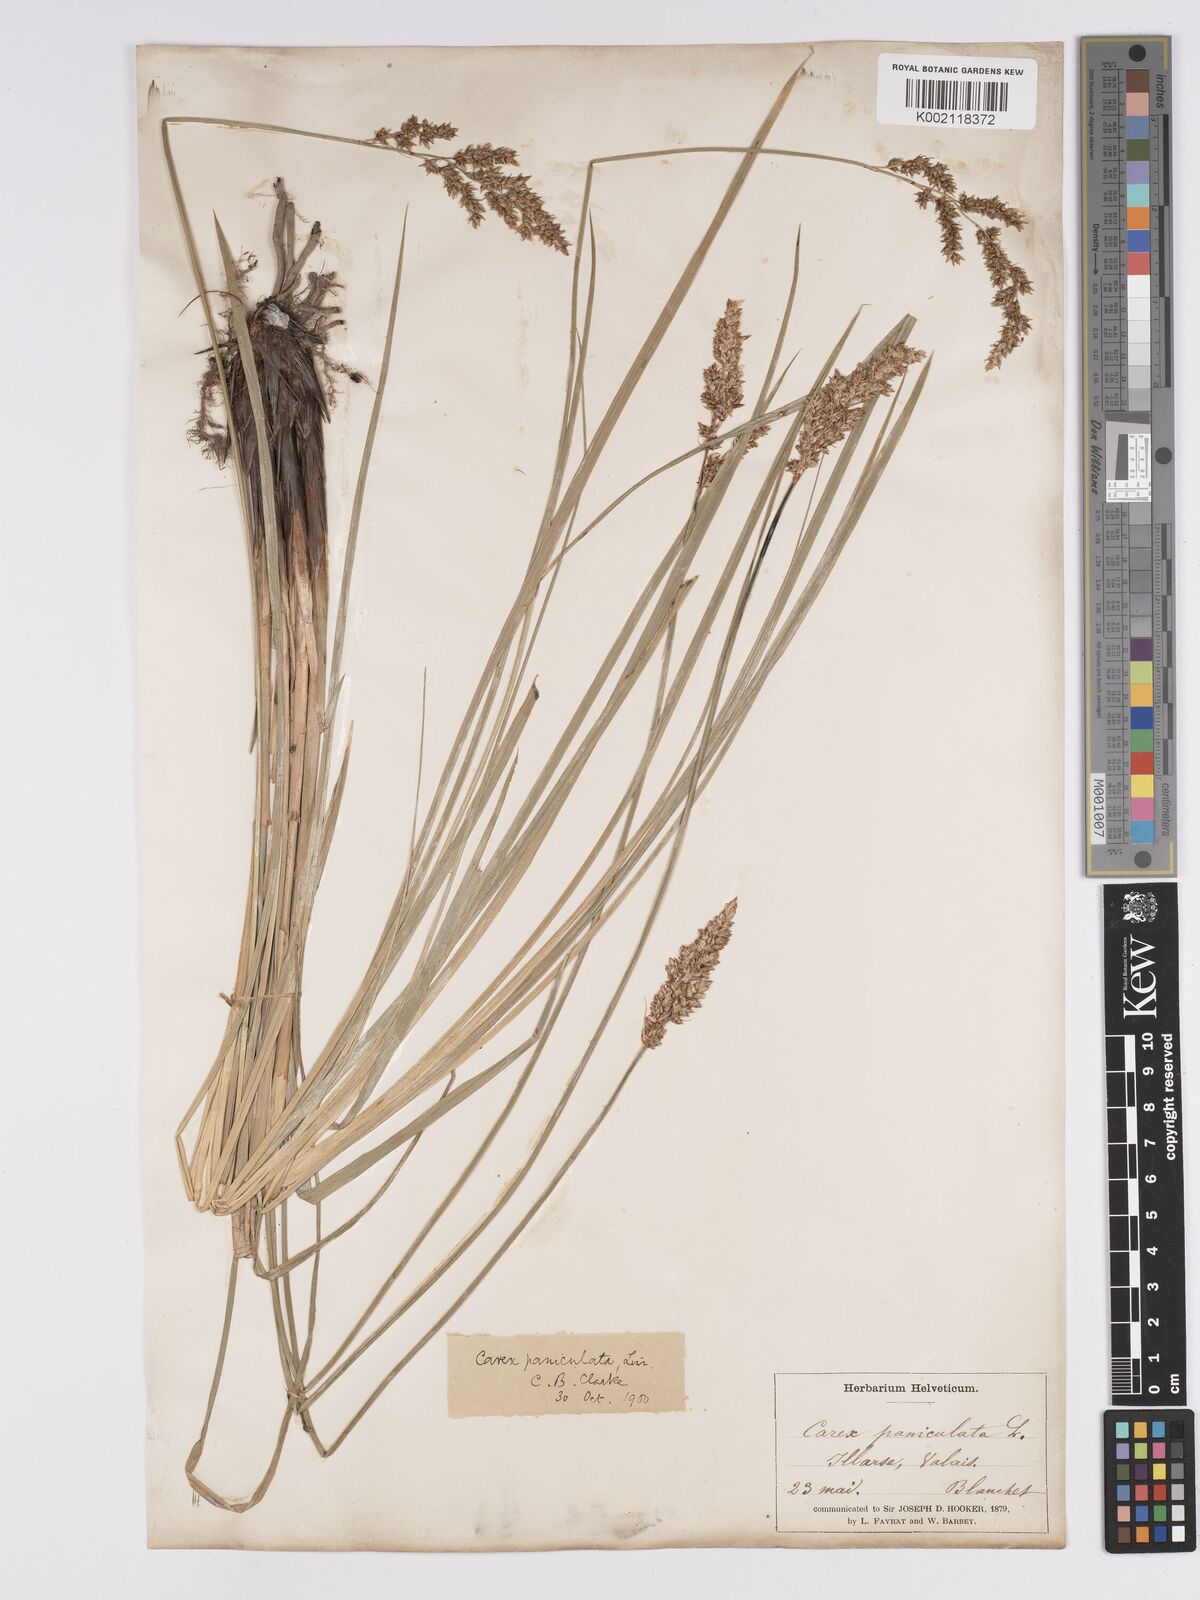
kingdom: Plantae
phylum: Tracheophyta
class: Liliopsida
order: Poales
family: Cyperaceae
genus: Carex
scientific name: Carex paniculata
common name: Greater tussock-sedge
